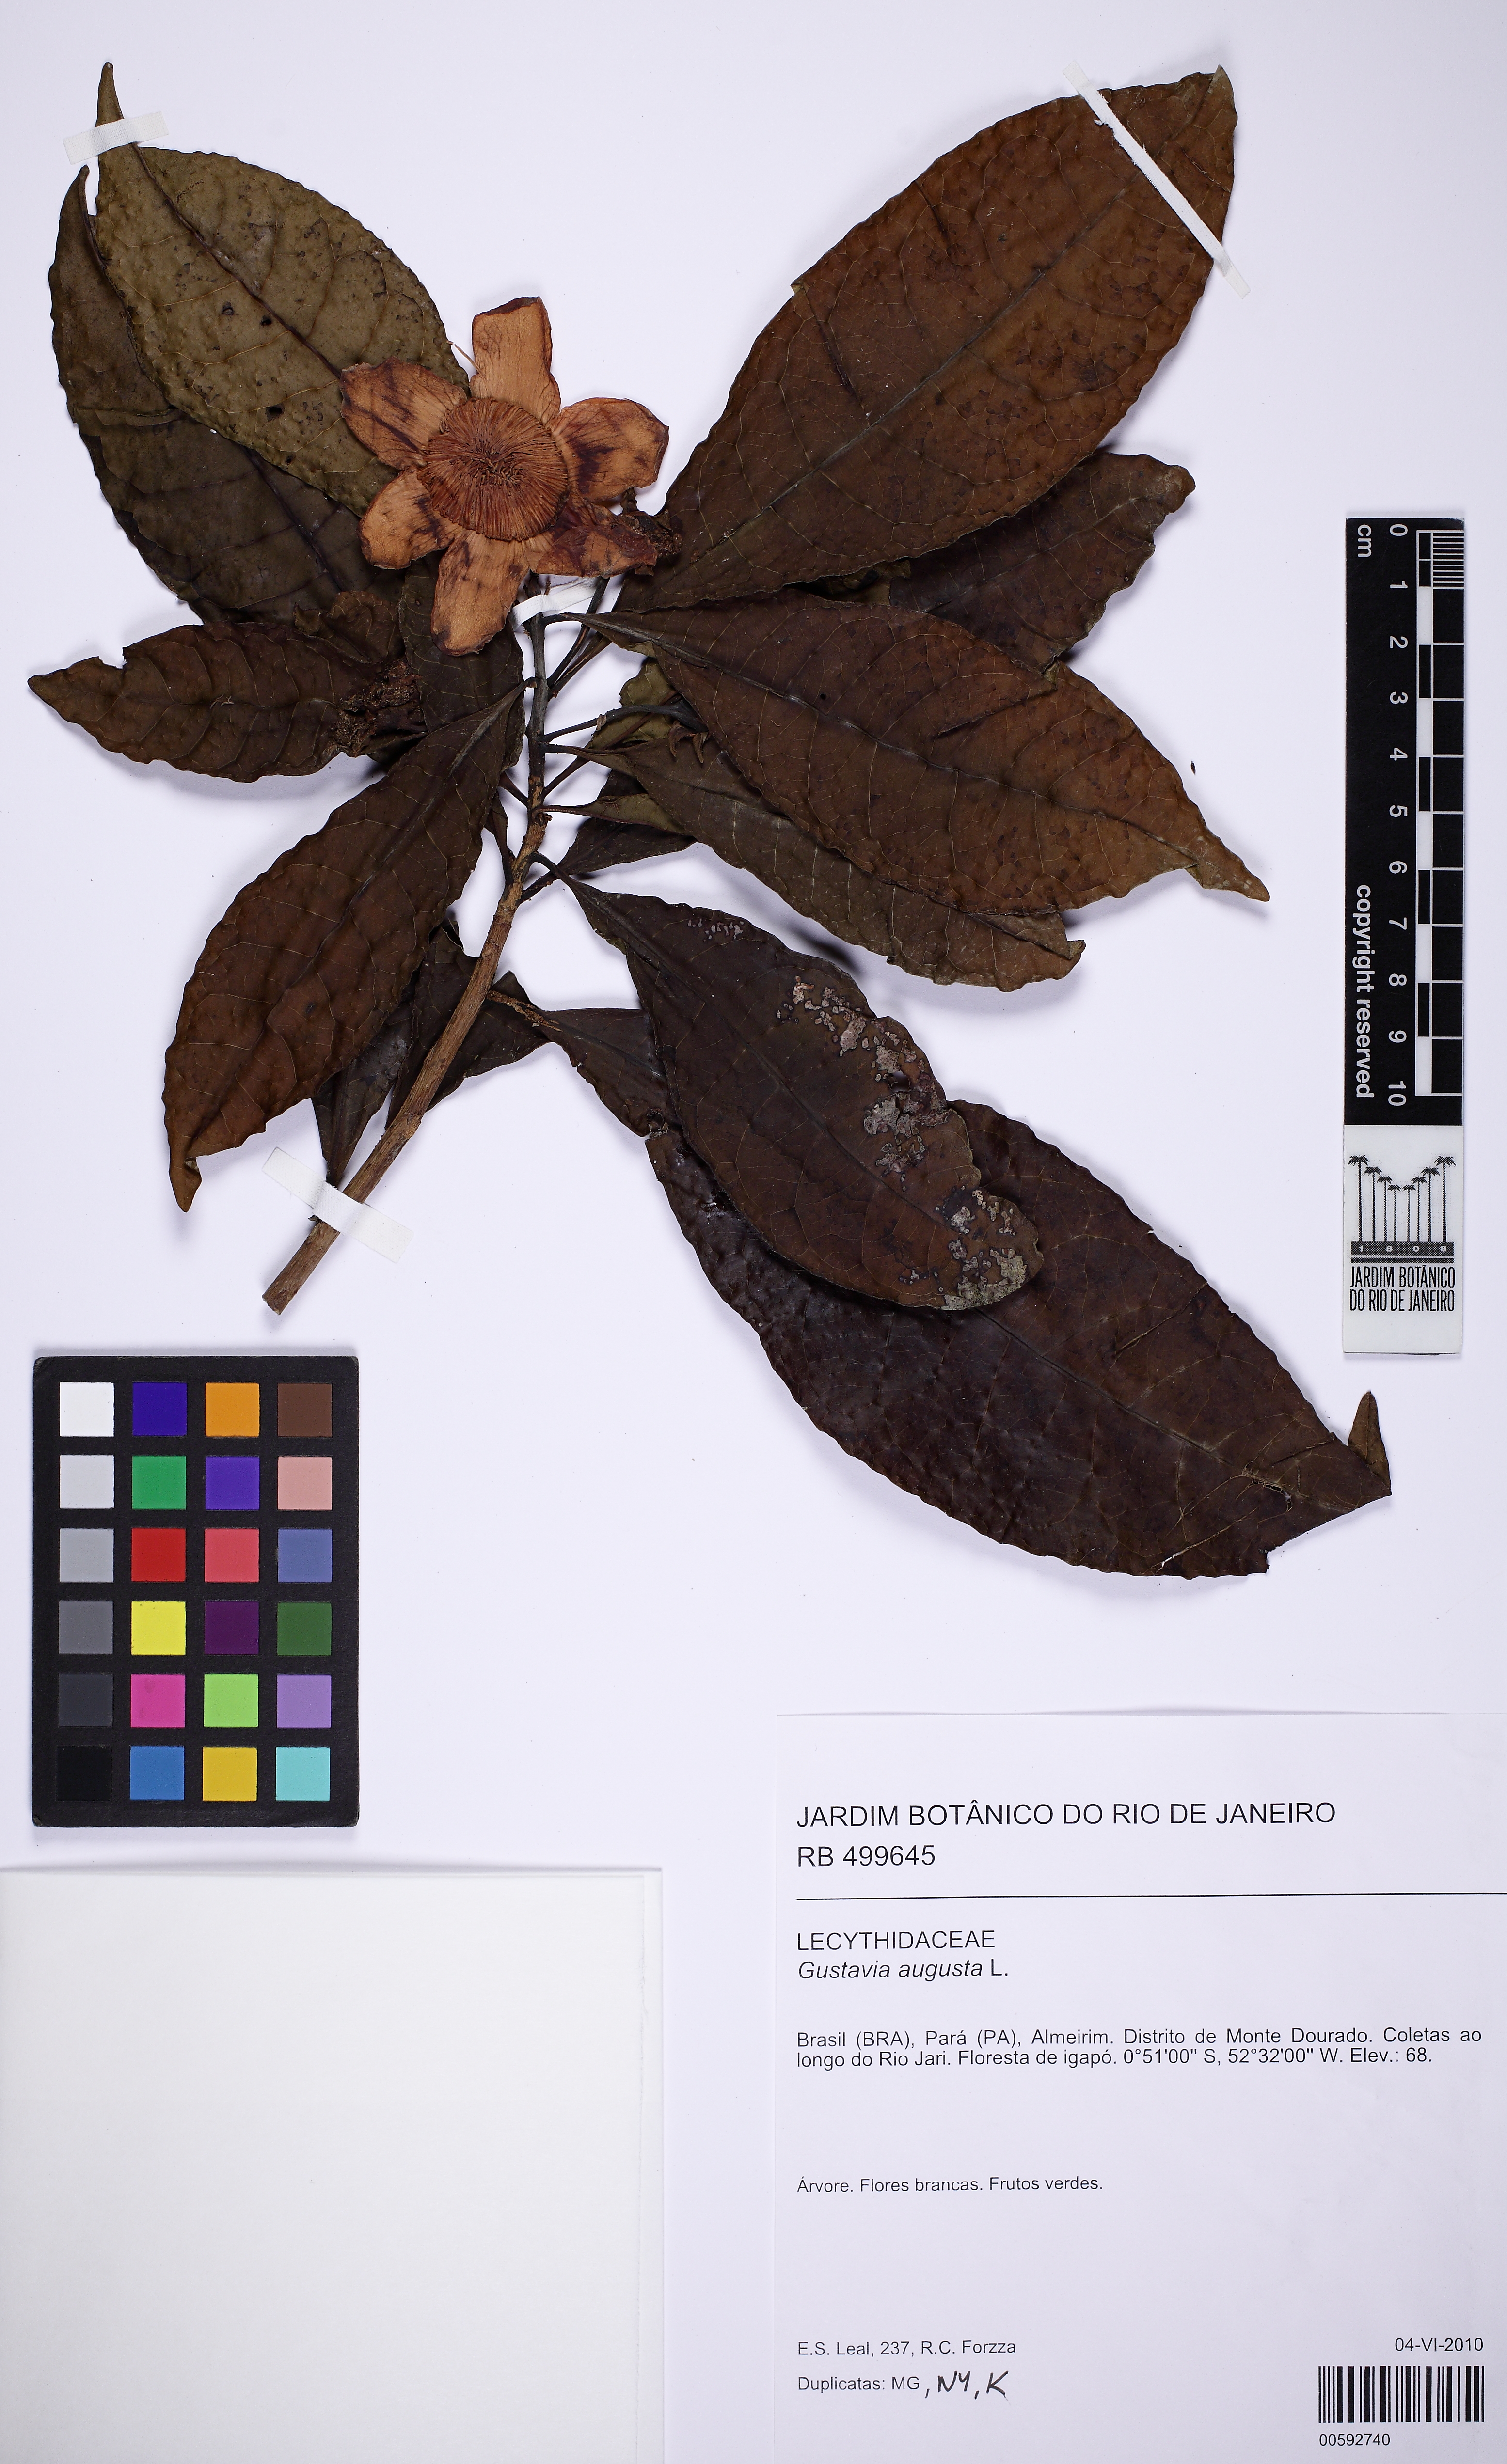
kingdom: Plantae
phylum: Tracheophyta
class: Magnoliopsida
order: Ericales
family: Lecythidaceae
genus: Gustavia
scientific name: Gustavia hexapetala
